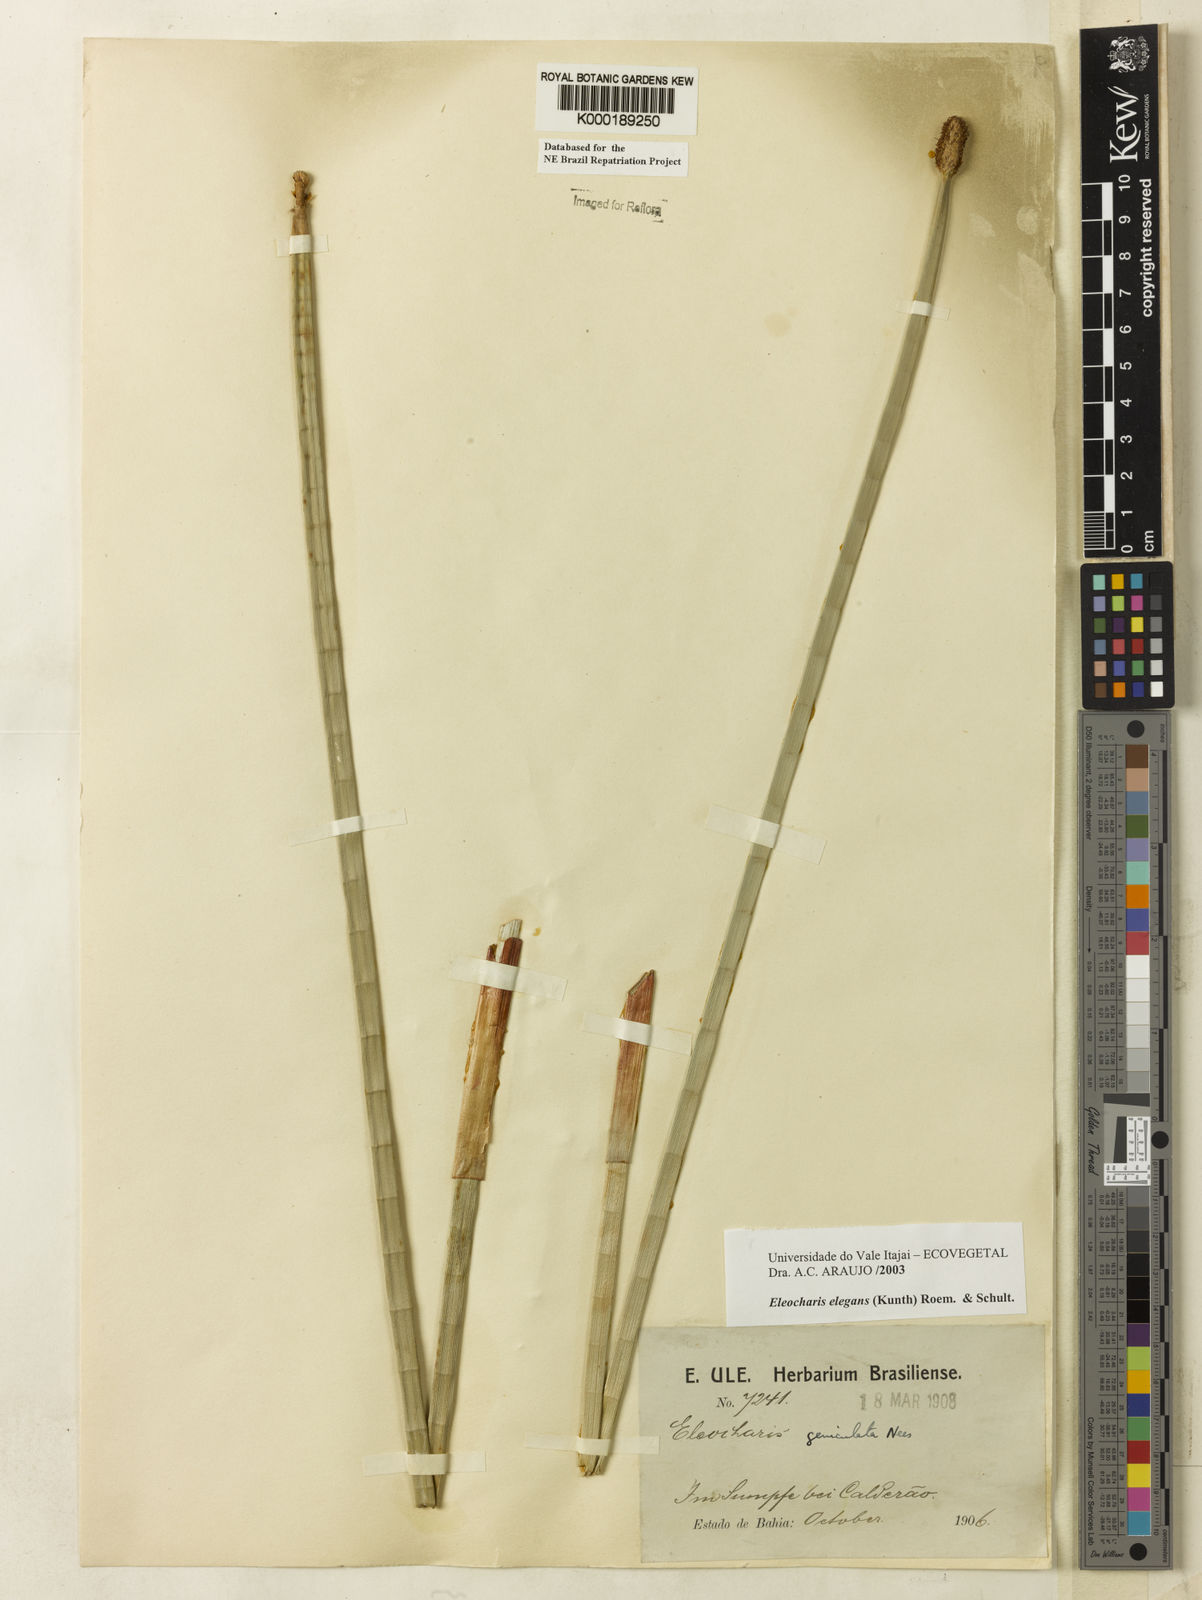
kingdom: Plantae
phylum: Tracheophyta
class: Liliopsida
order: Poales
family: Cyperaceae
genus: Eleocharis
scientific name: Eleocharis elegans
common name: Elegant spike-rush
